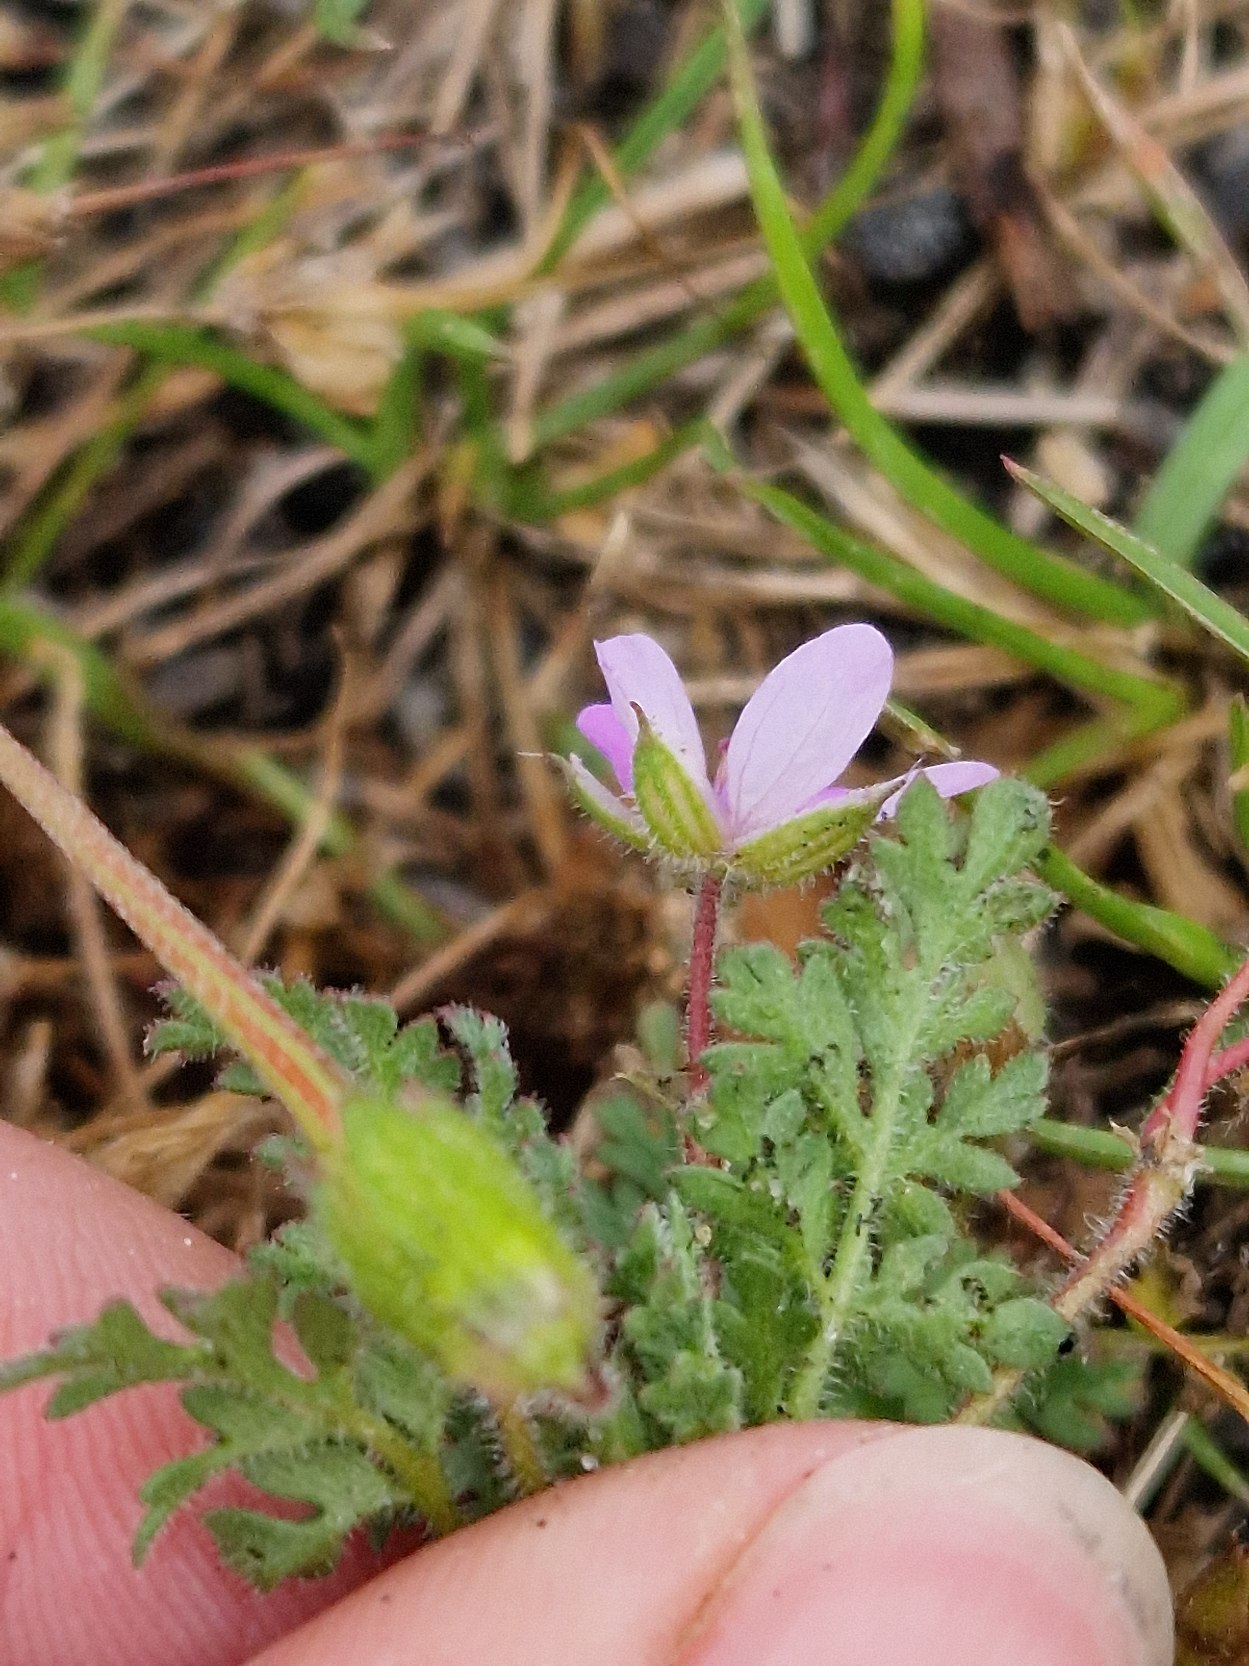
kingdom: Plantae
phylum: Tracheophyta
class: Magnoliopsida
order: Geraniales
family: Geraniaceae
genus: Erodium
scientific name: Erodium cicutarium
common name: Hejrenæb
